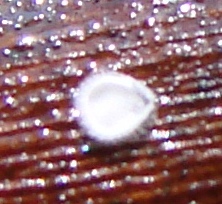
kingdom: Fungi
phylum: Basidiomycota
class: Agaricomycetes
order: Agaricales
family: Niaceae
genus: Flagelloscypha
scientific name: Flagelloscypha
